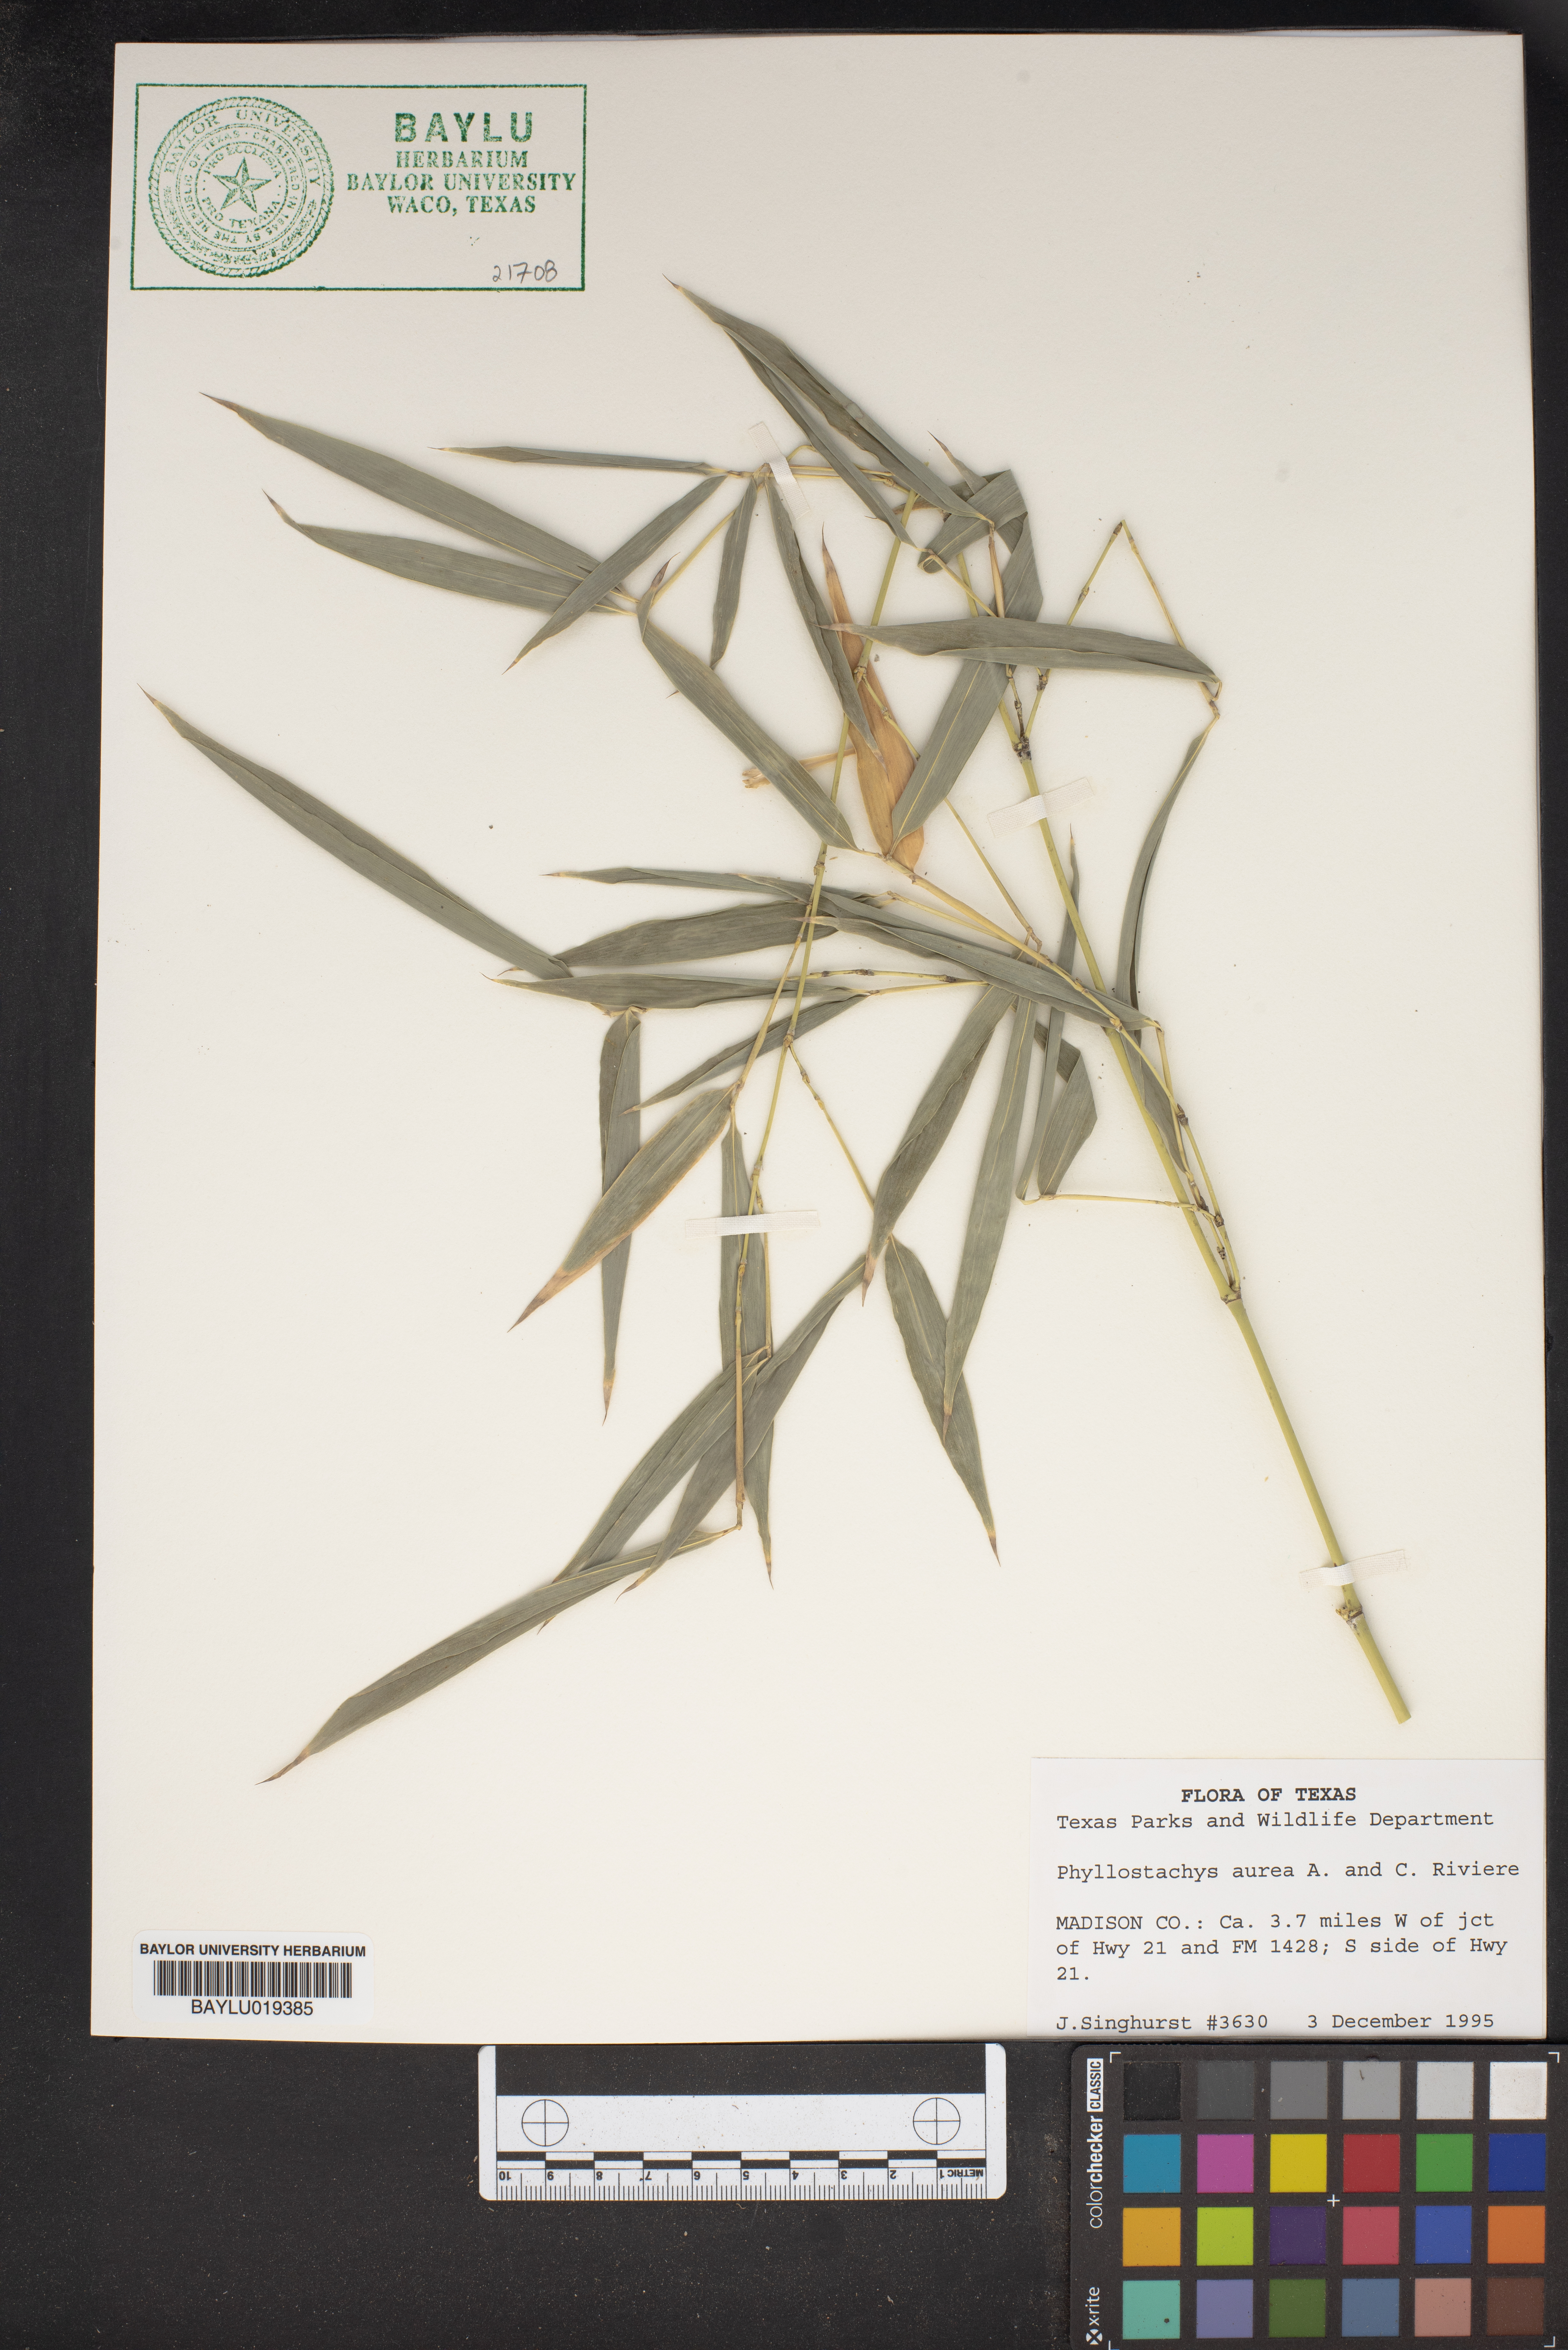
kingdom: Plantae
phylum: Tracheophyta
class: Liliopsida
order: Poales
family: Poaceae
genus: Phyllostachys
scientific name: Phyllostachys aurea
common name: Golden bamboo
